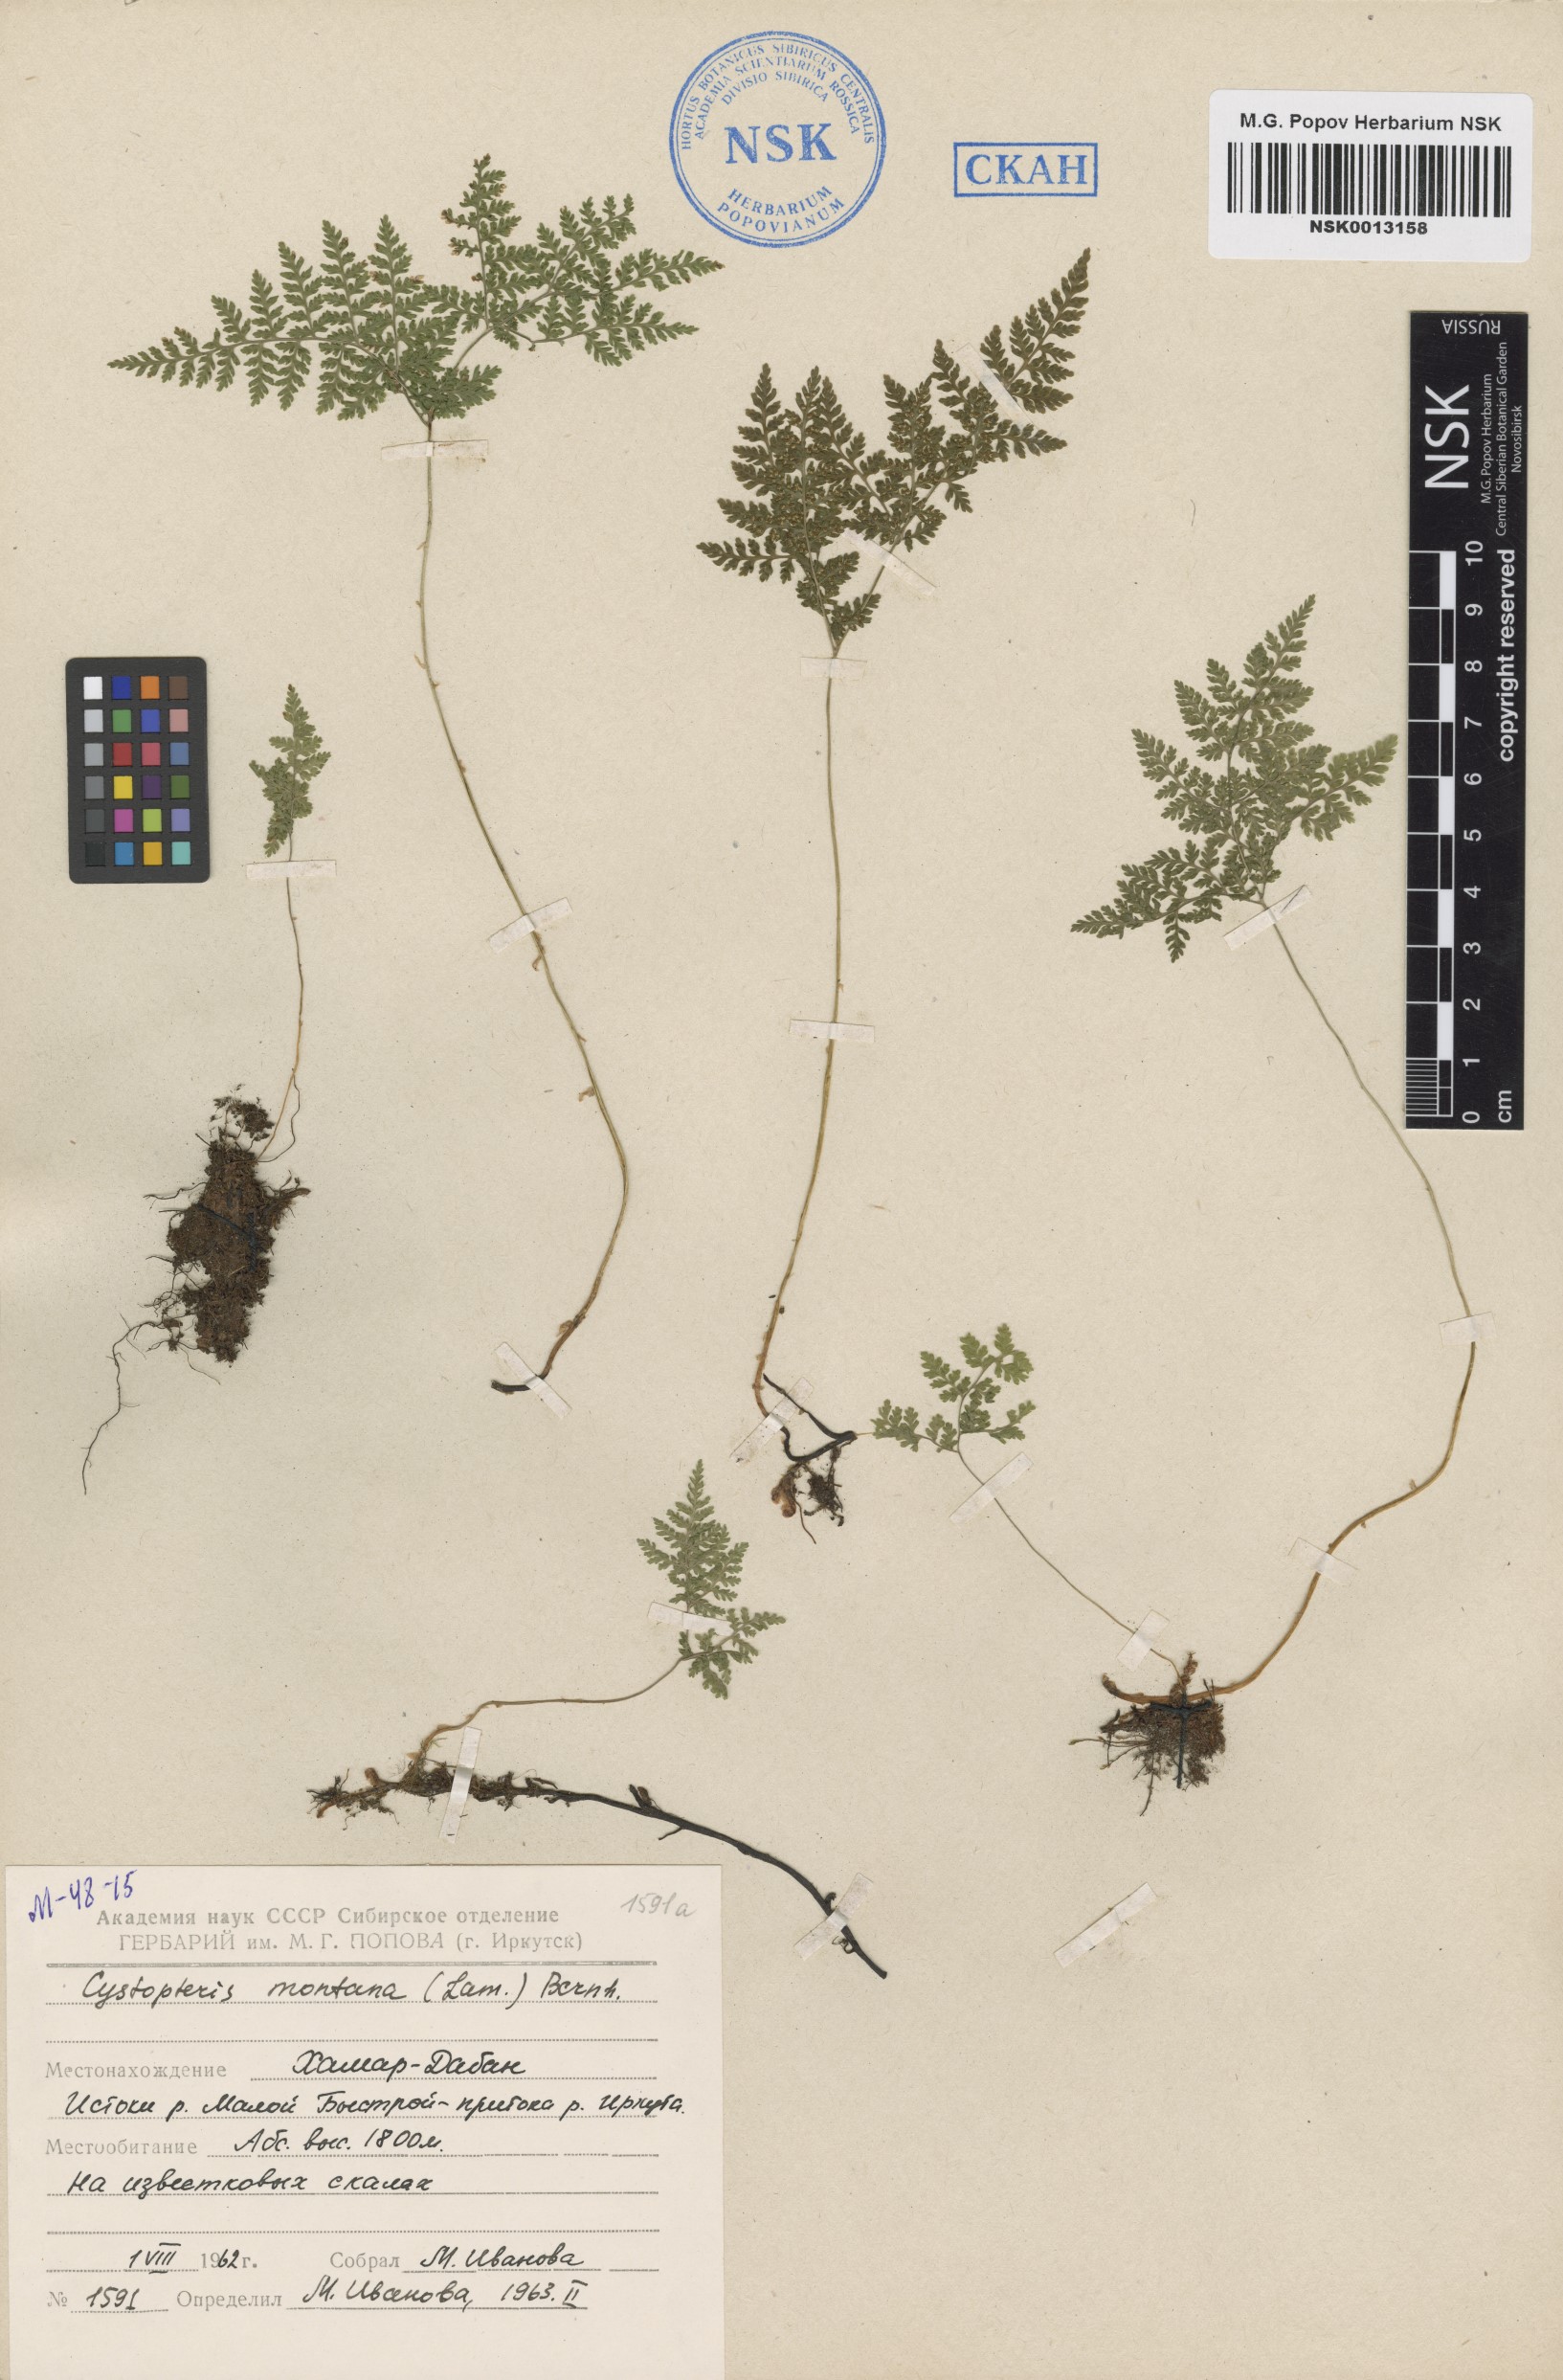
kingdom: Plantae
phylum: Tracheophyta
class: Polypodiopsida
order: Polypodiales
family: Cystopteridaceae
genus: Cystopteris
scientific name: Cystopteris montana
